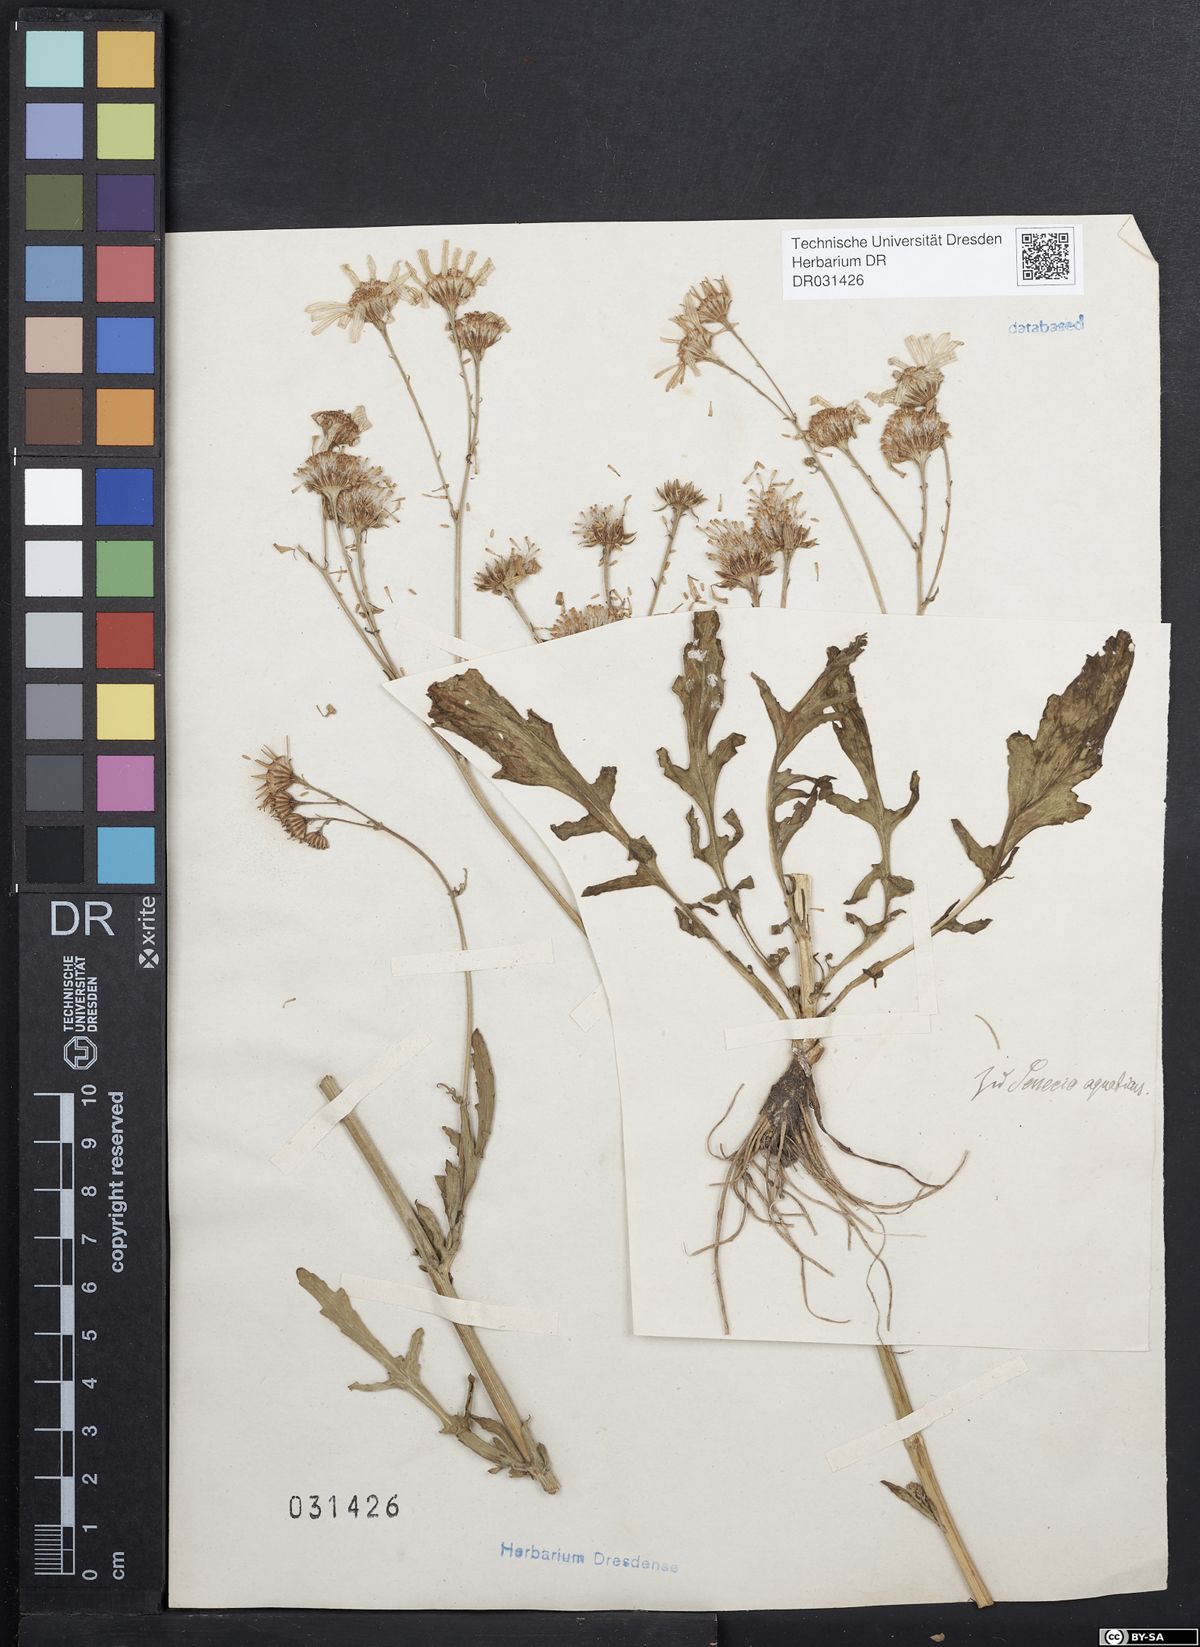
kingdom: Plantae
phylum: Tracheophyta
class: Magnoliopsida
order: Asterales
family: Asteraceae
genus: Jacobaea
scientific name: Jacobaea aquatica
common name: Water ragwort
